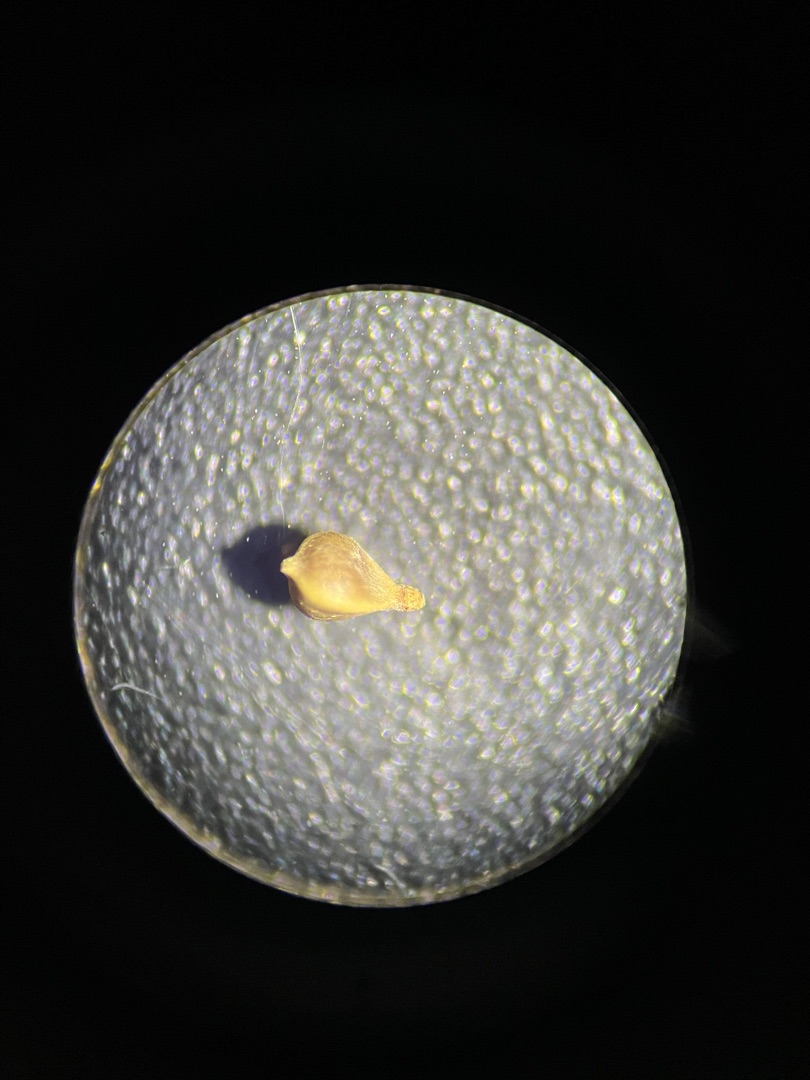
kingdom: Plantae
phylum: Tracheophyta
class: Liliopsida
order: Poales
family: Cyperaceae
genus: Carex
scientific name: Carex flacca
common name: Blågrøn star
